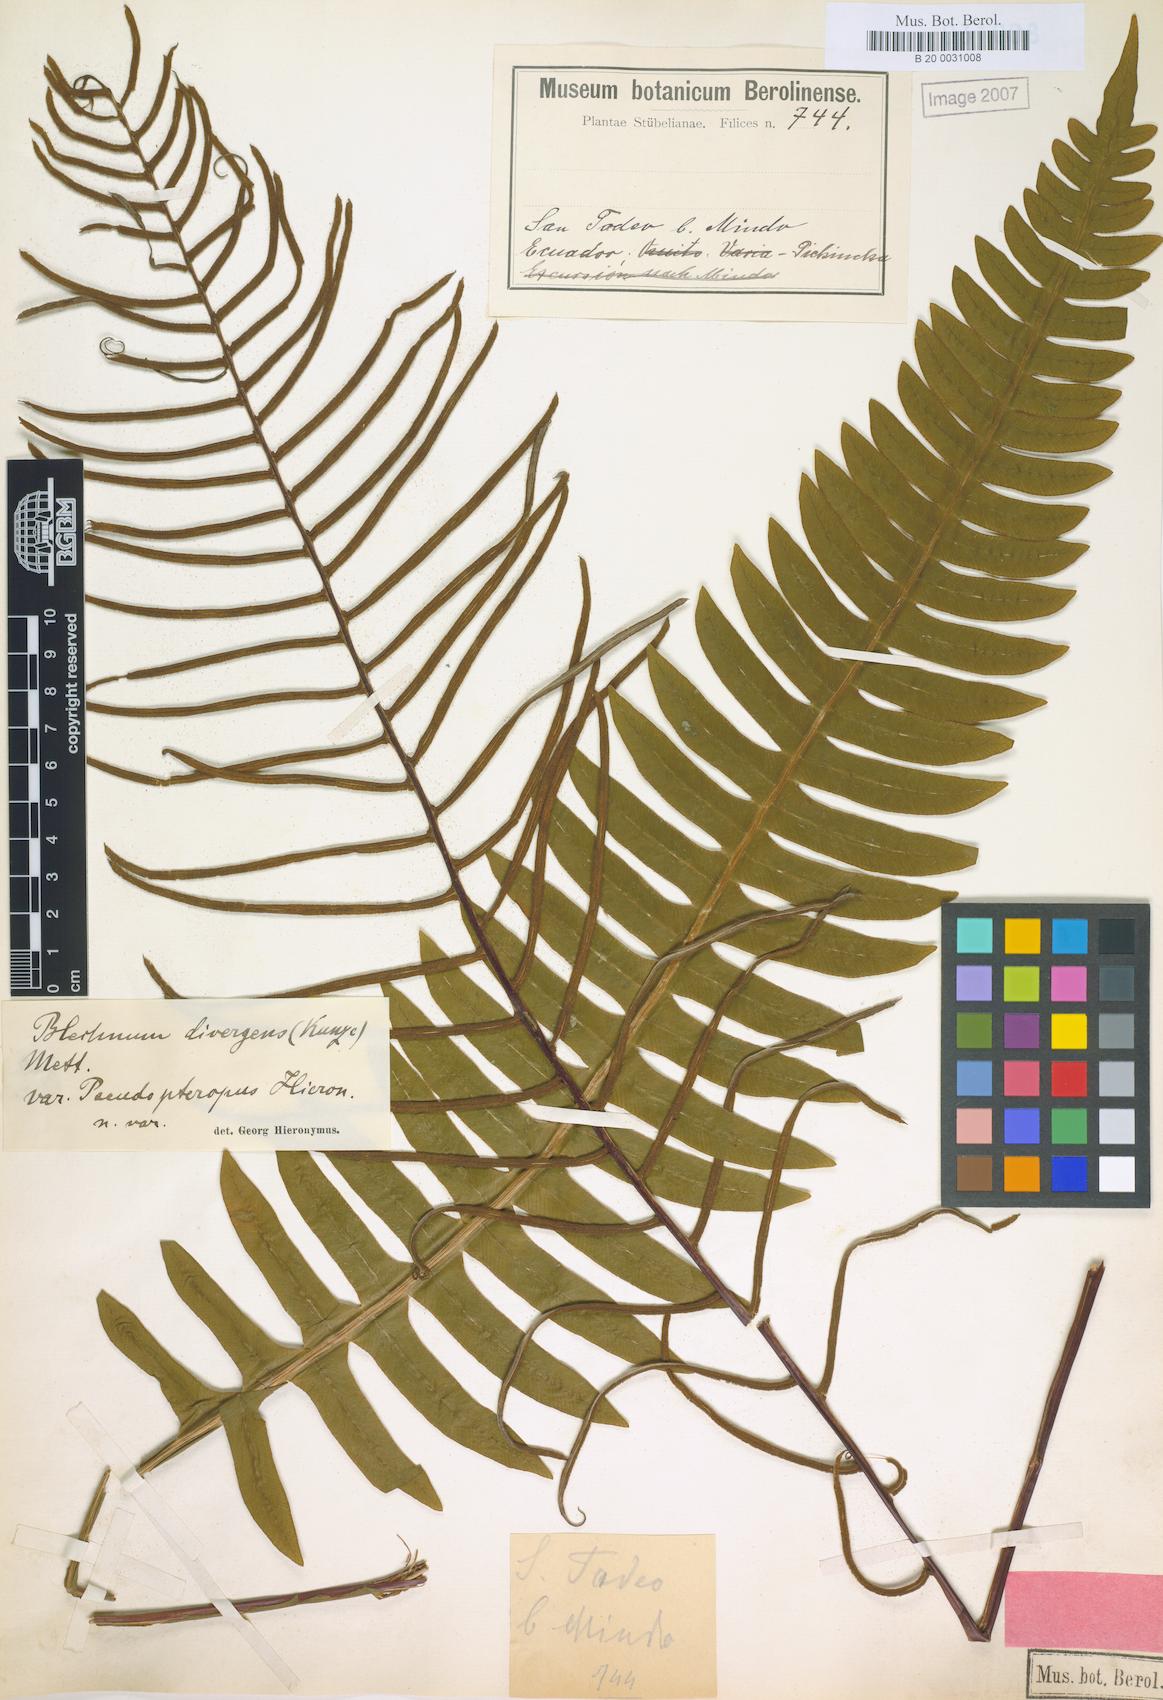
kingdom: Plantae
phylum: Tracheophyta
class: Polypodiopsida
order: Polypodiales
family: Blechnaceae
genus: Austroblechnum
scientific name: Austroblechnum divergens
